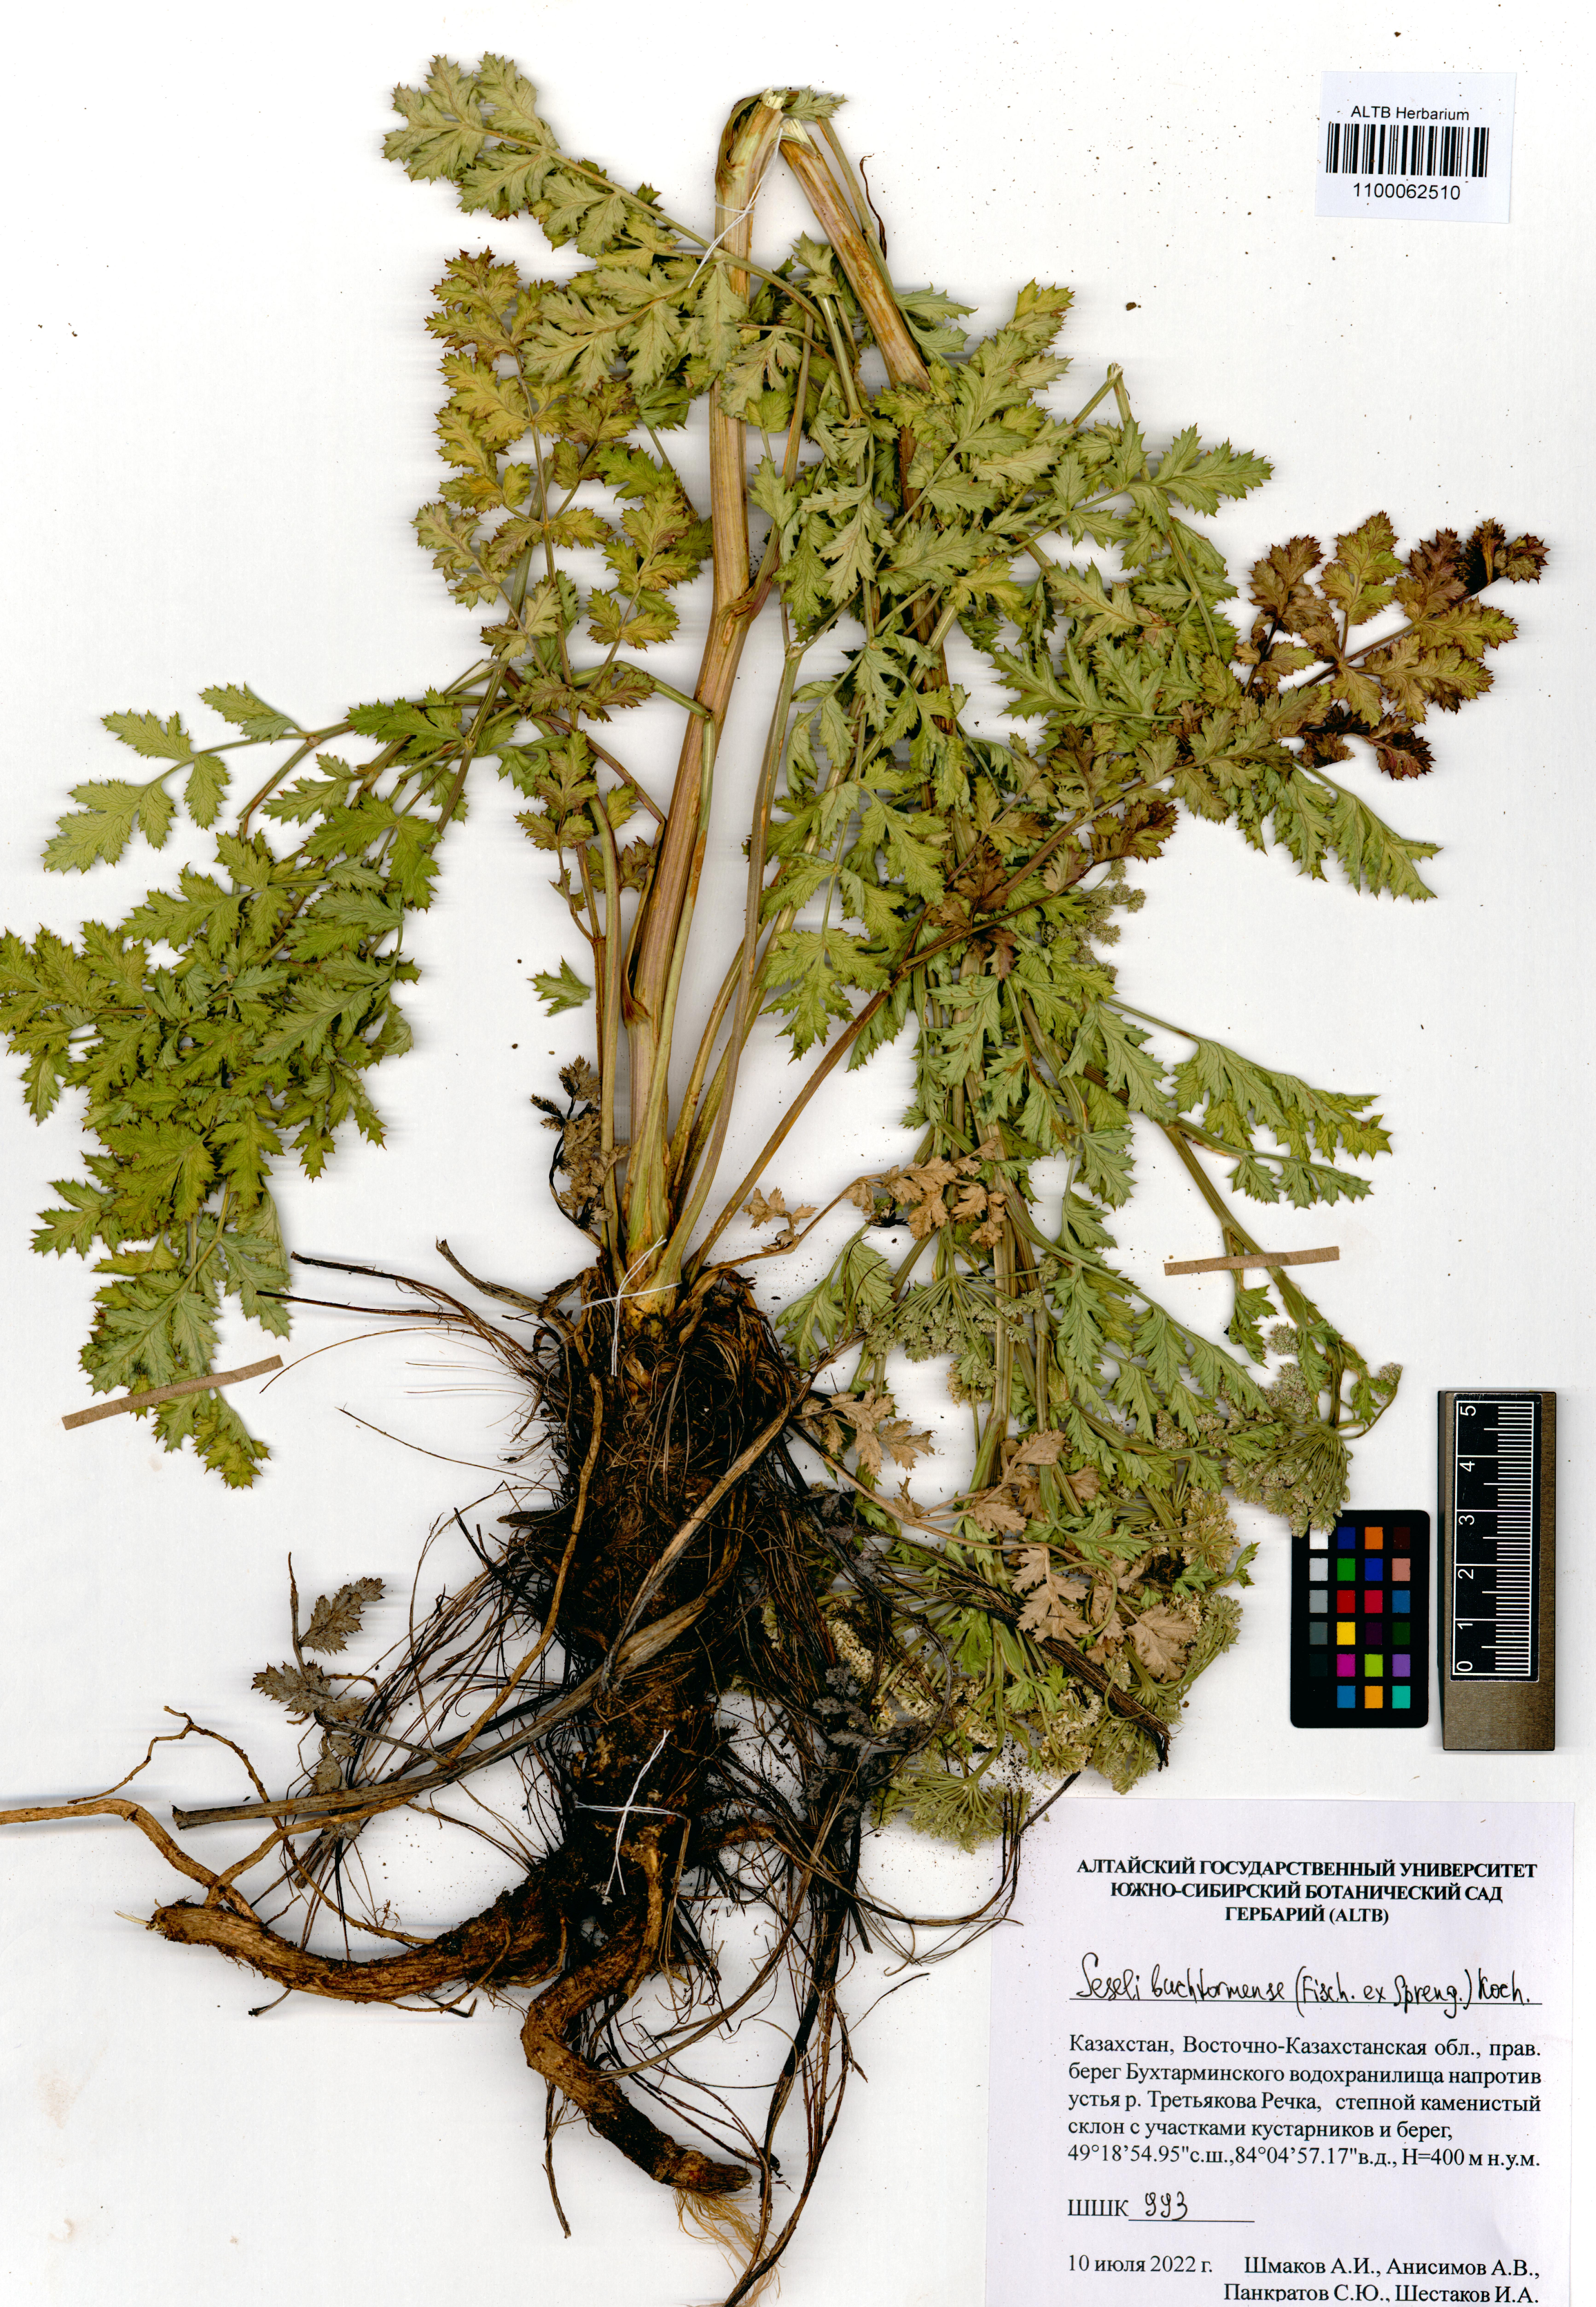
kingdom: Plantae
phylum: Tracheophyta
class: Magnoliopsida
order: Apiales
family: Apiaceae
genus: Seseli
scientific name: Seseli buchtormense
